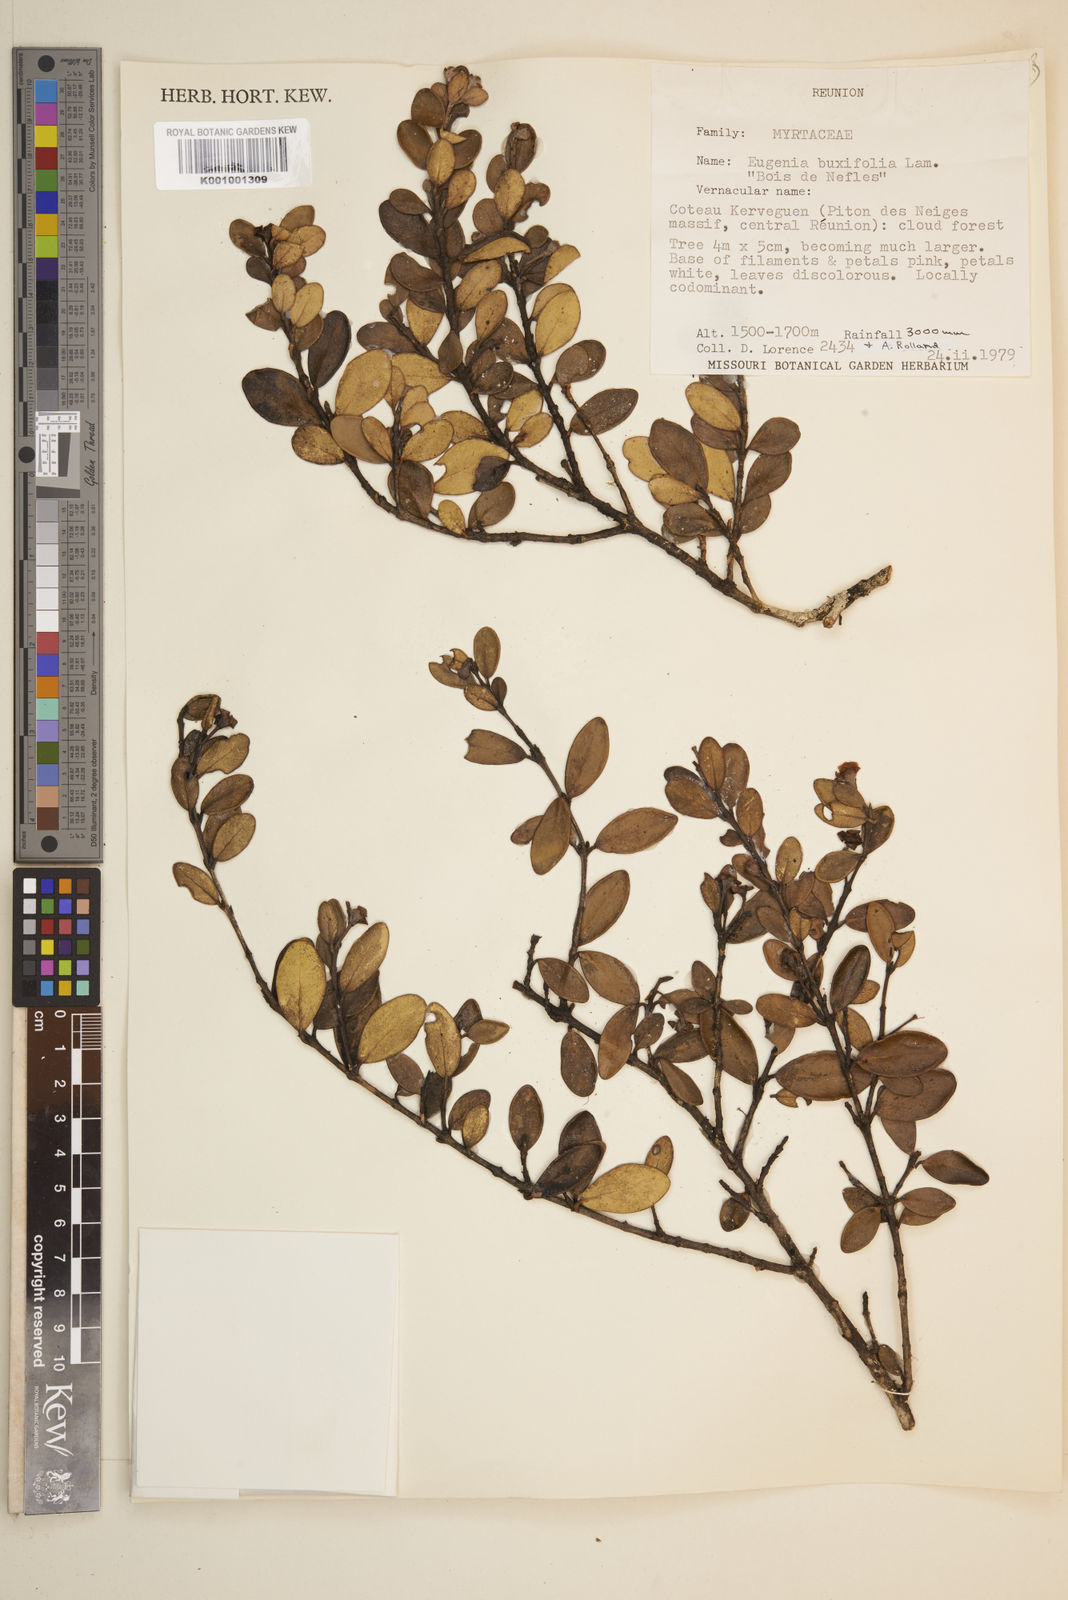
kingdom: Plantae
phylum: Tracheophyta
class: Magnoliopsida
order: Myrtales
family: Myrtaceae
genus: Eugenia
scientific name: Eugenia buxifolia
